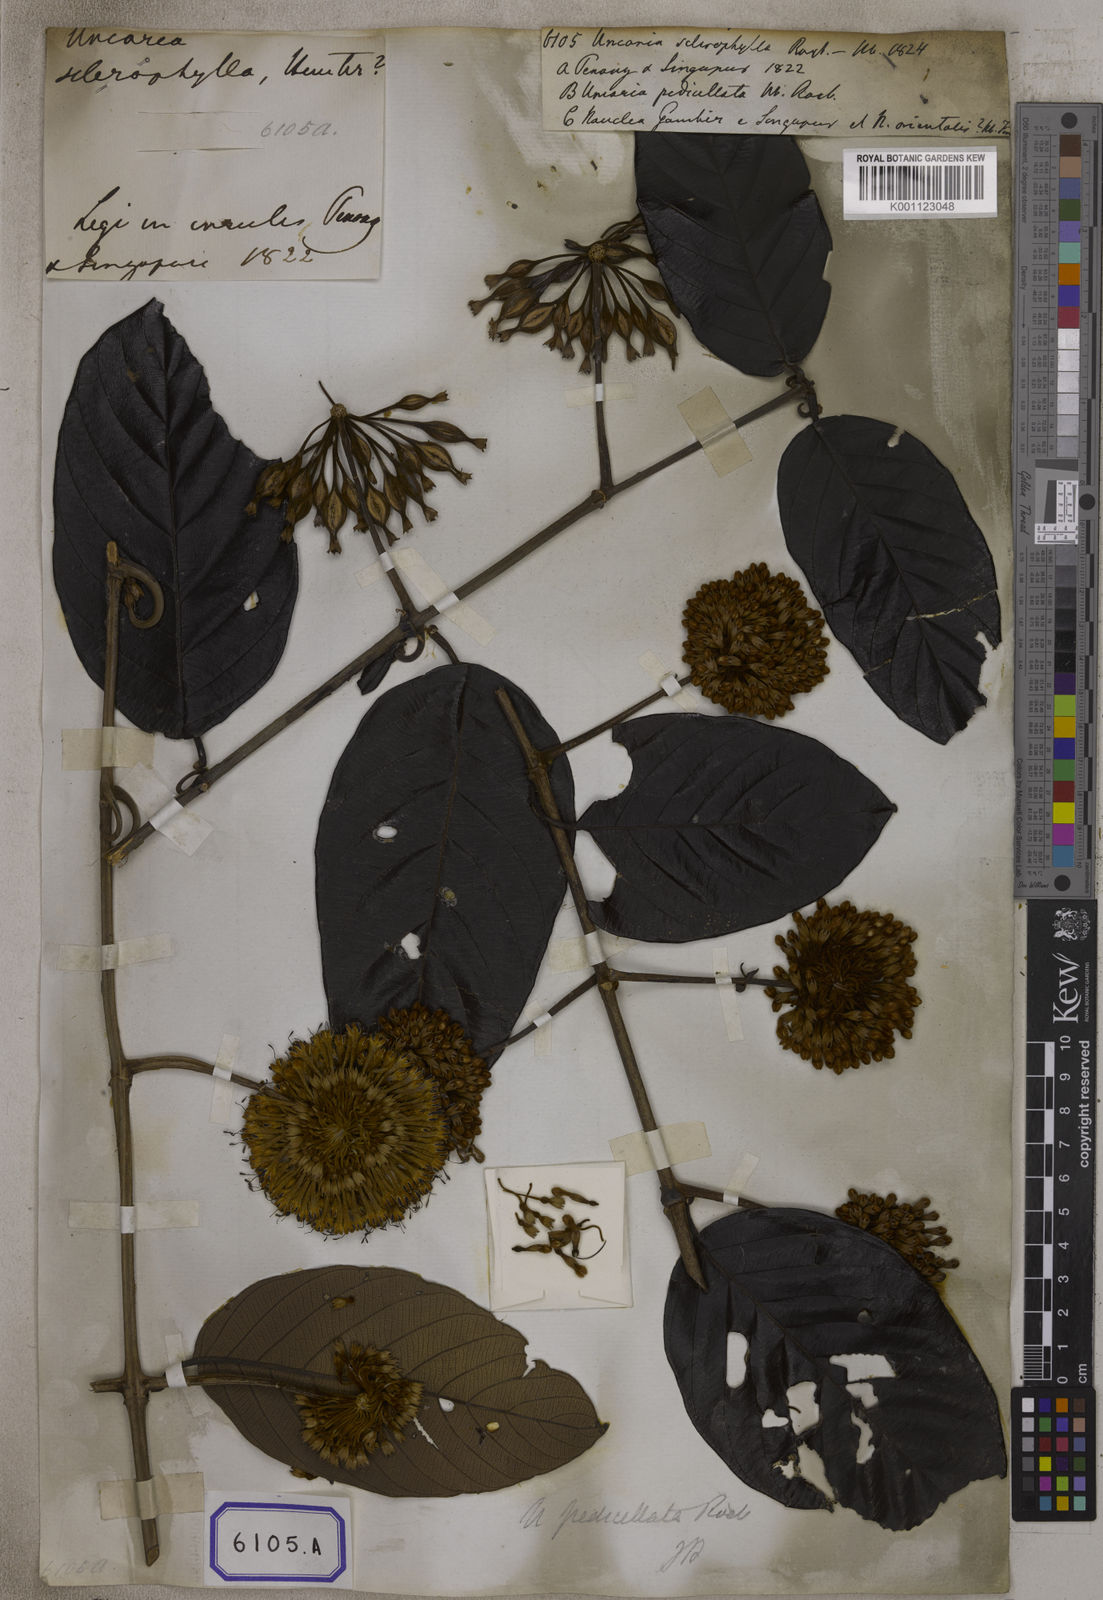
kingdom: Plantae
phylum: Tracheophyta
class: Magnoliopsida
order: Gentianales
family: Rubiaceae
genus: Uncaria
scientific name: Uncaria
